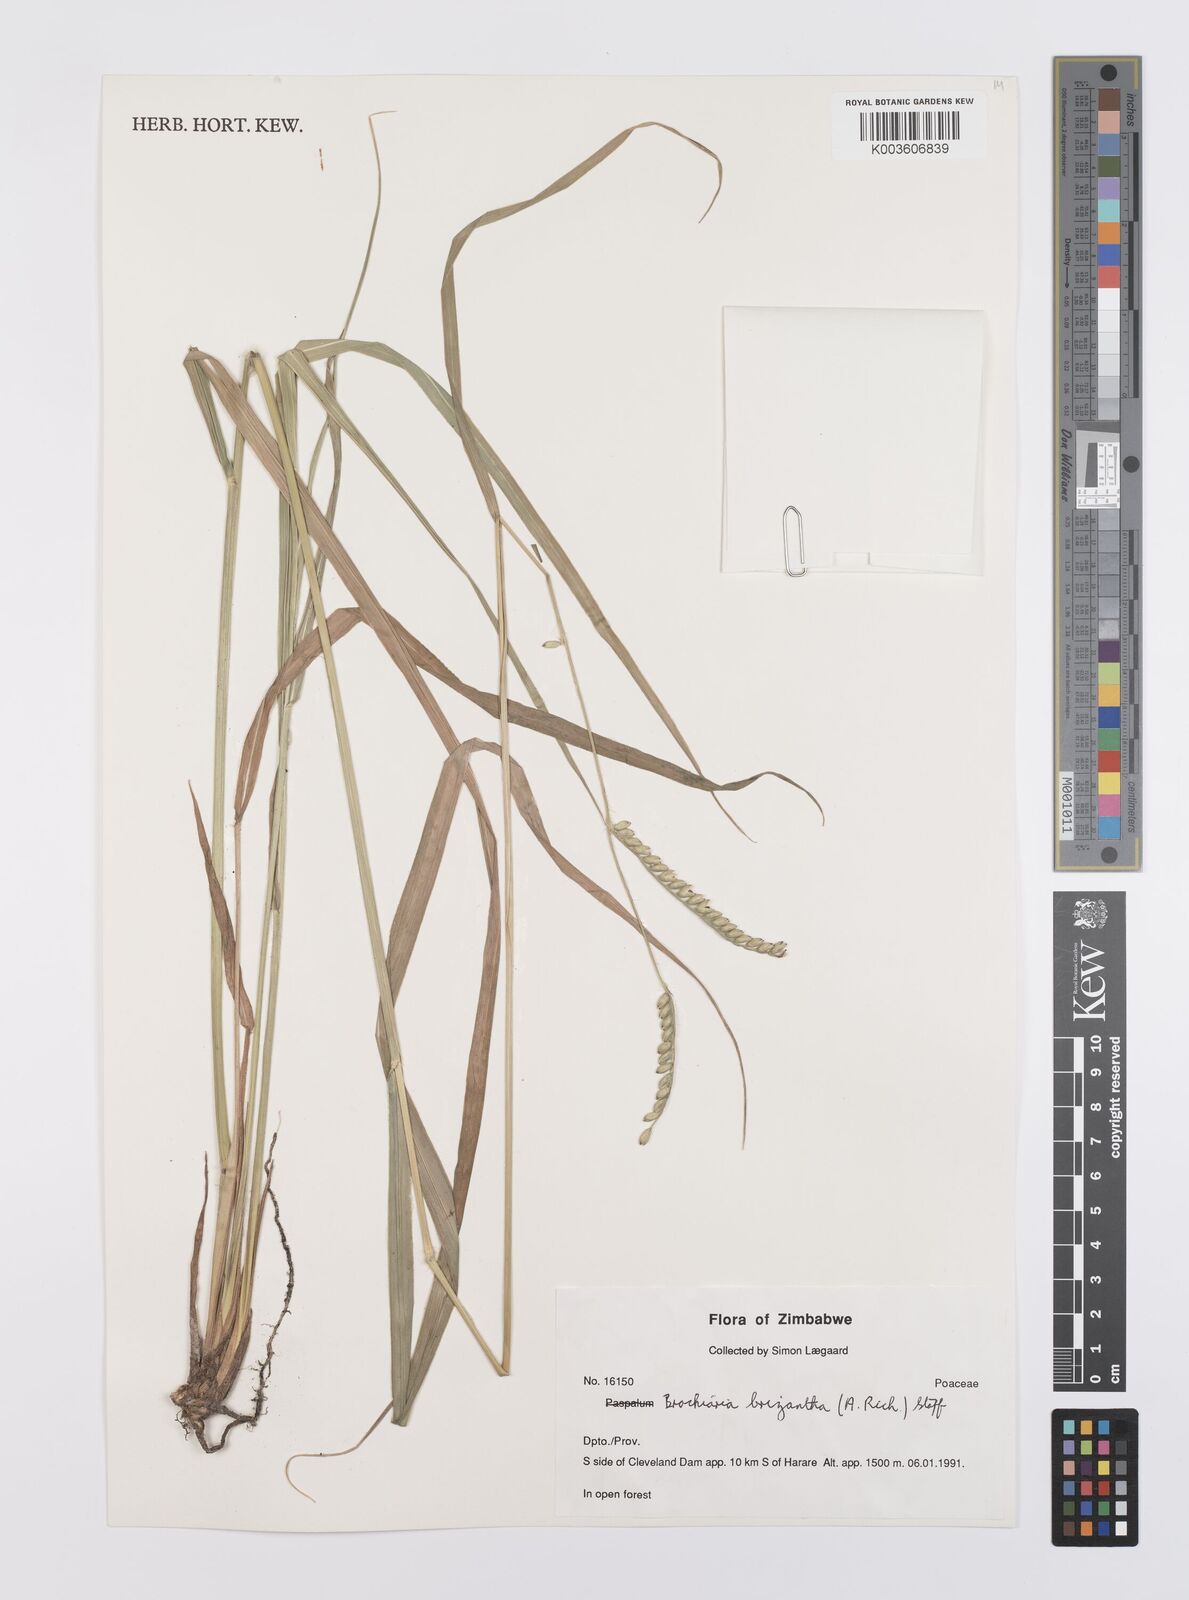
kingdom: Plantae
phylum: Tracheophyta
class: Liliopsida
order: Poales
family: Poaceae
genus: Urochloa
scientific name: Urochloa brizantha
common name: Palisade signalgrass
